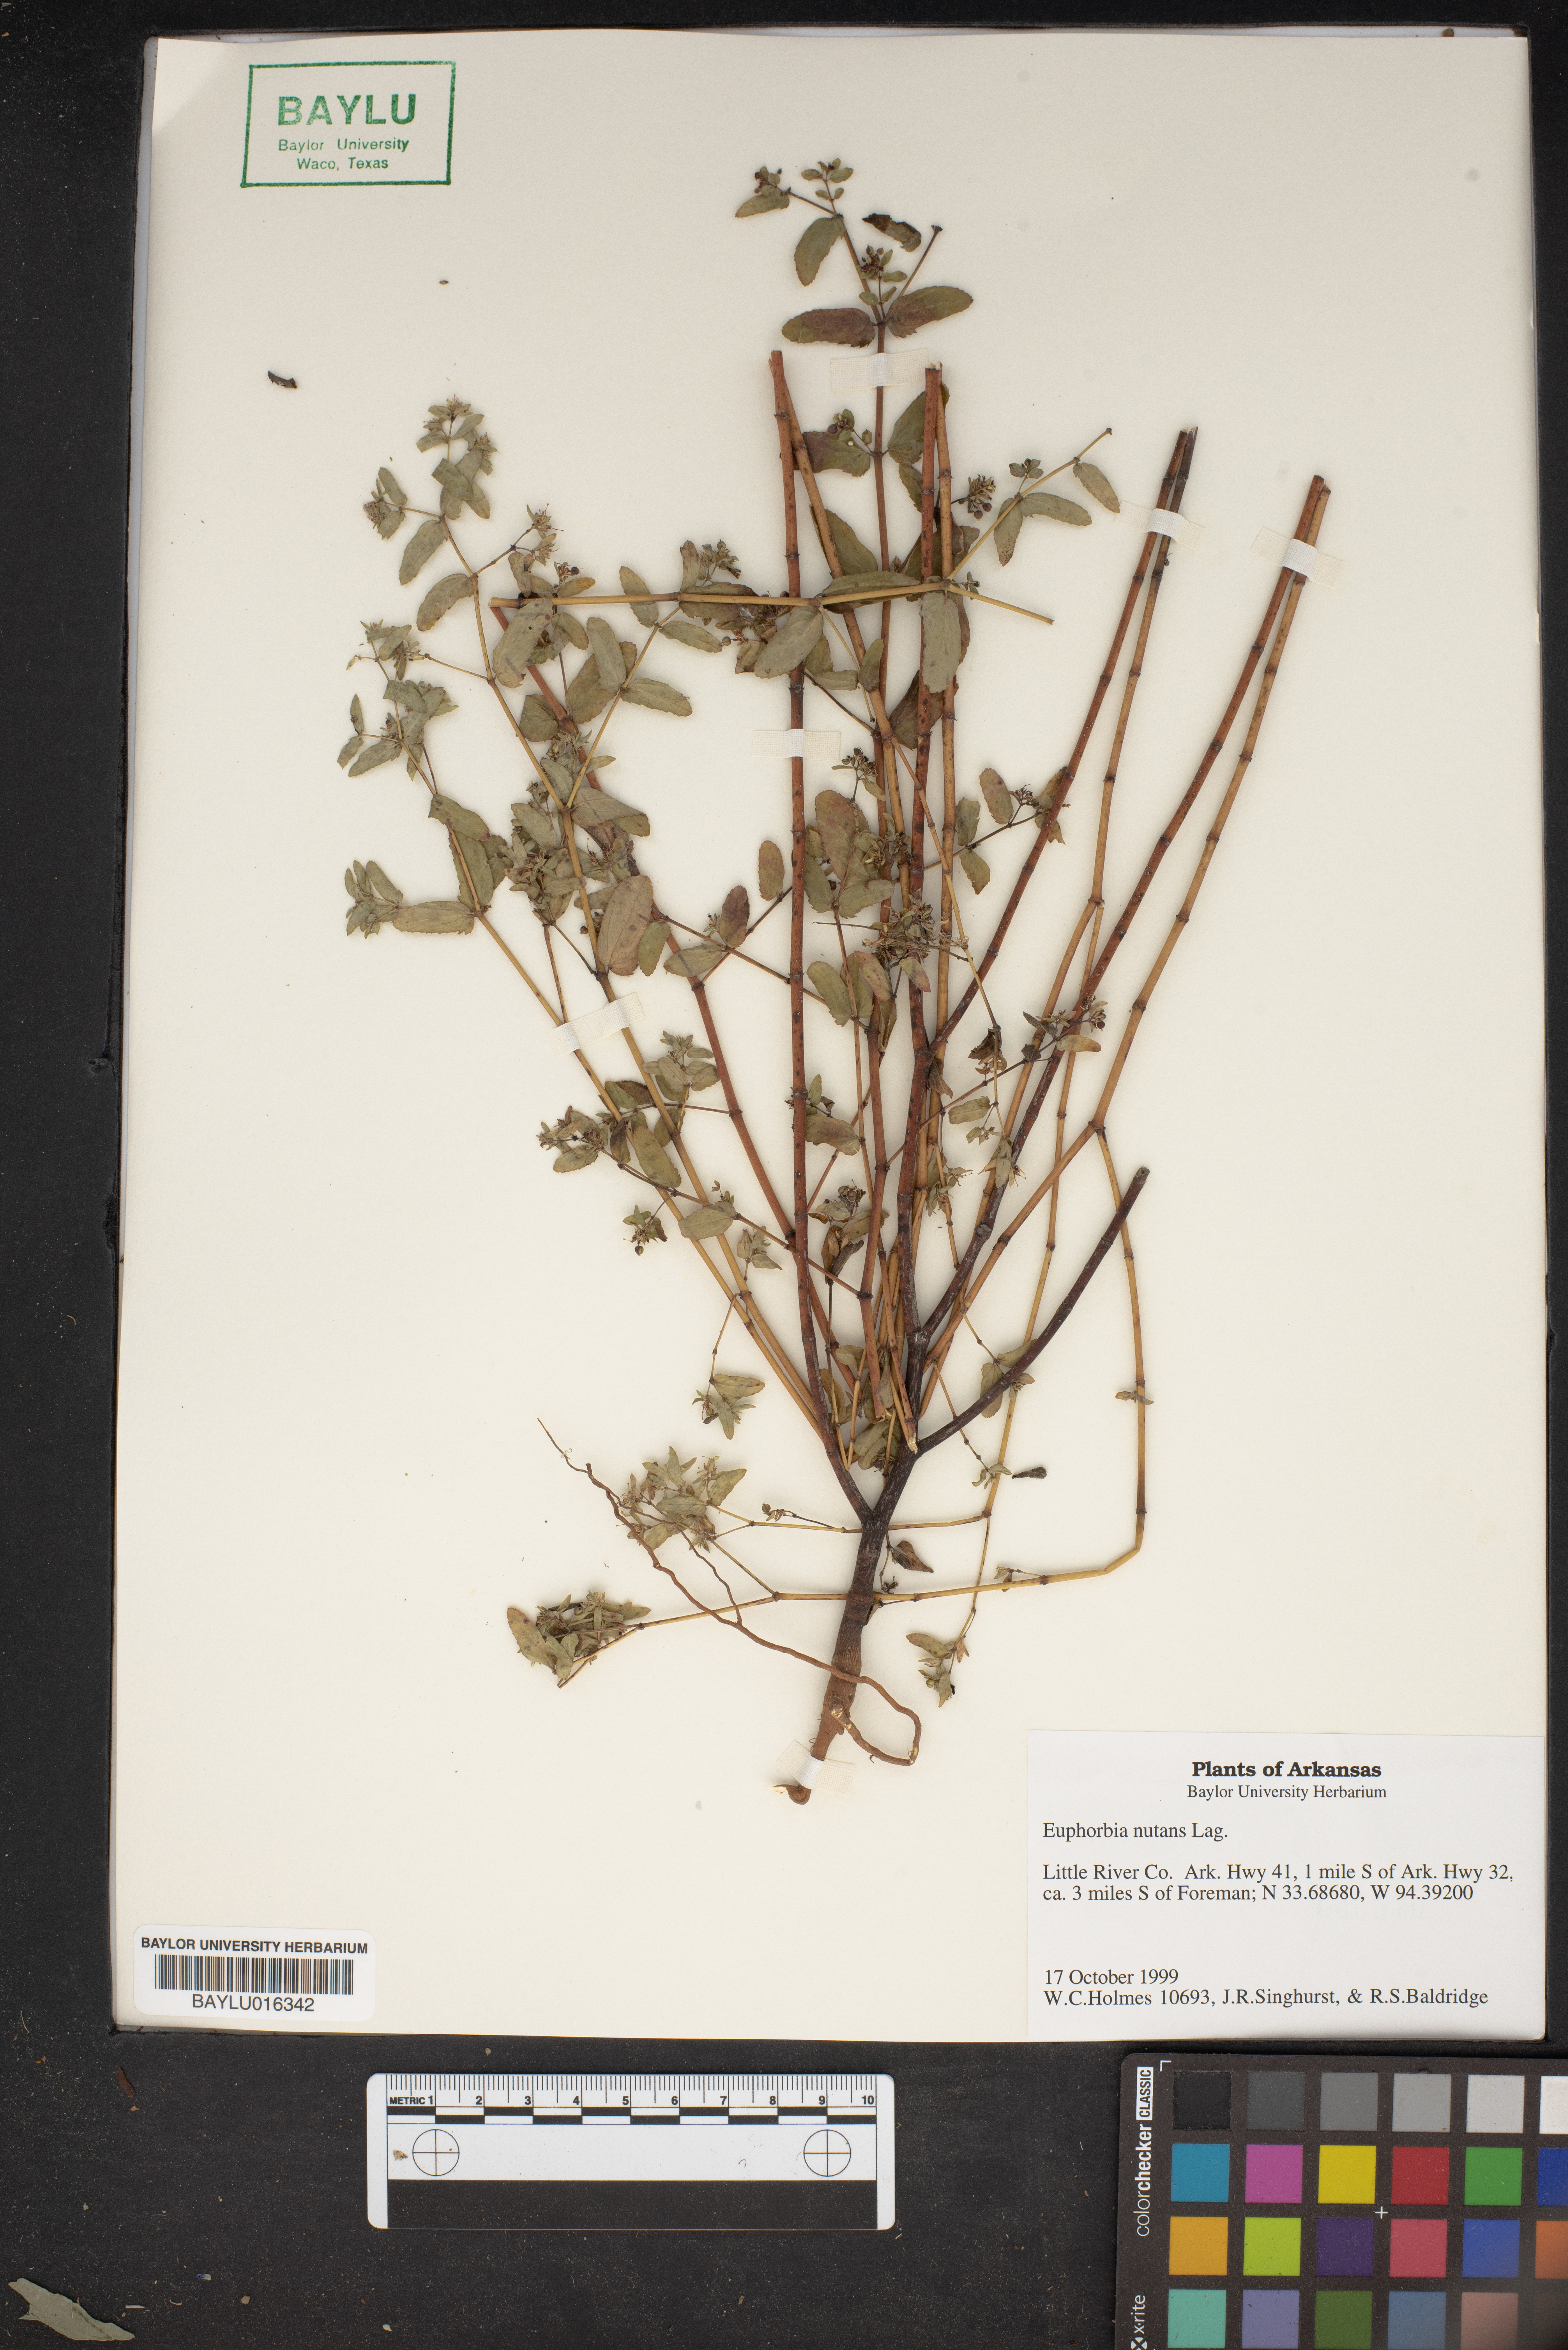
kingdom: Plantae
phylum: Tracheophyta
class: Magnoliopsida
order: Malpighiales
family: Euphorbiaceae
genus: Euphorbia
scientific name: Euphorbia nutans
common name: Eyebane
